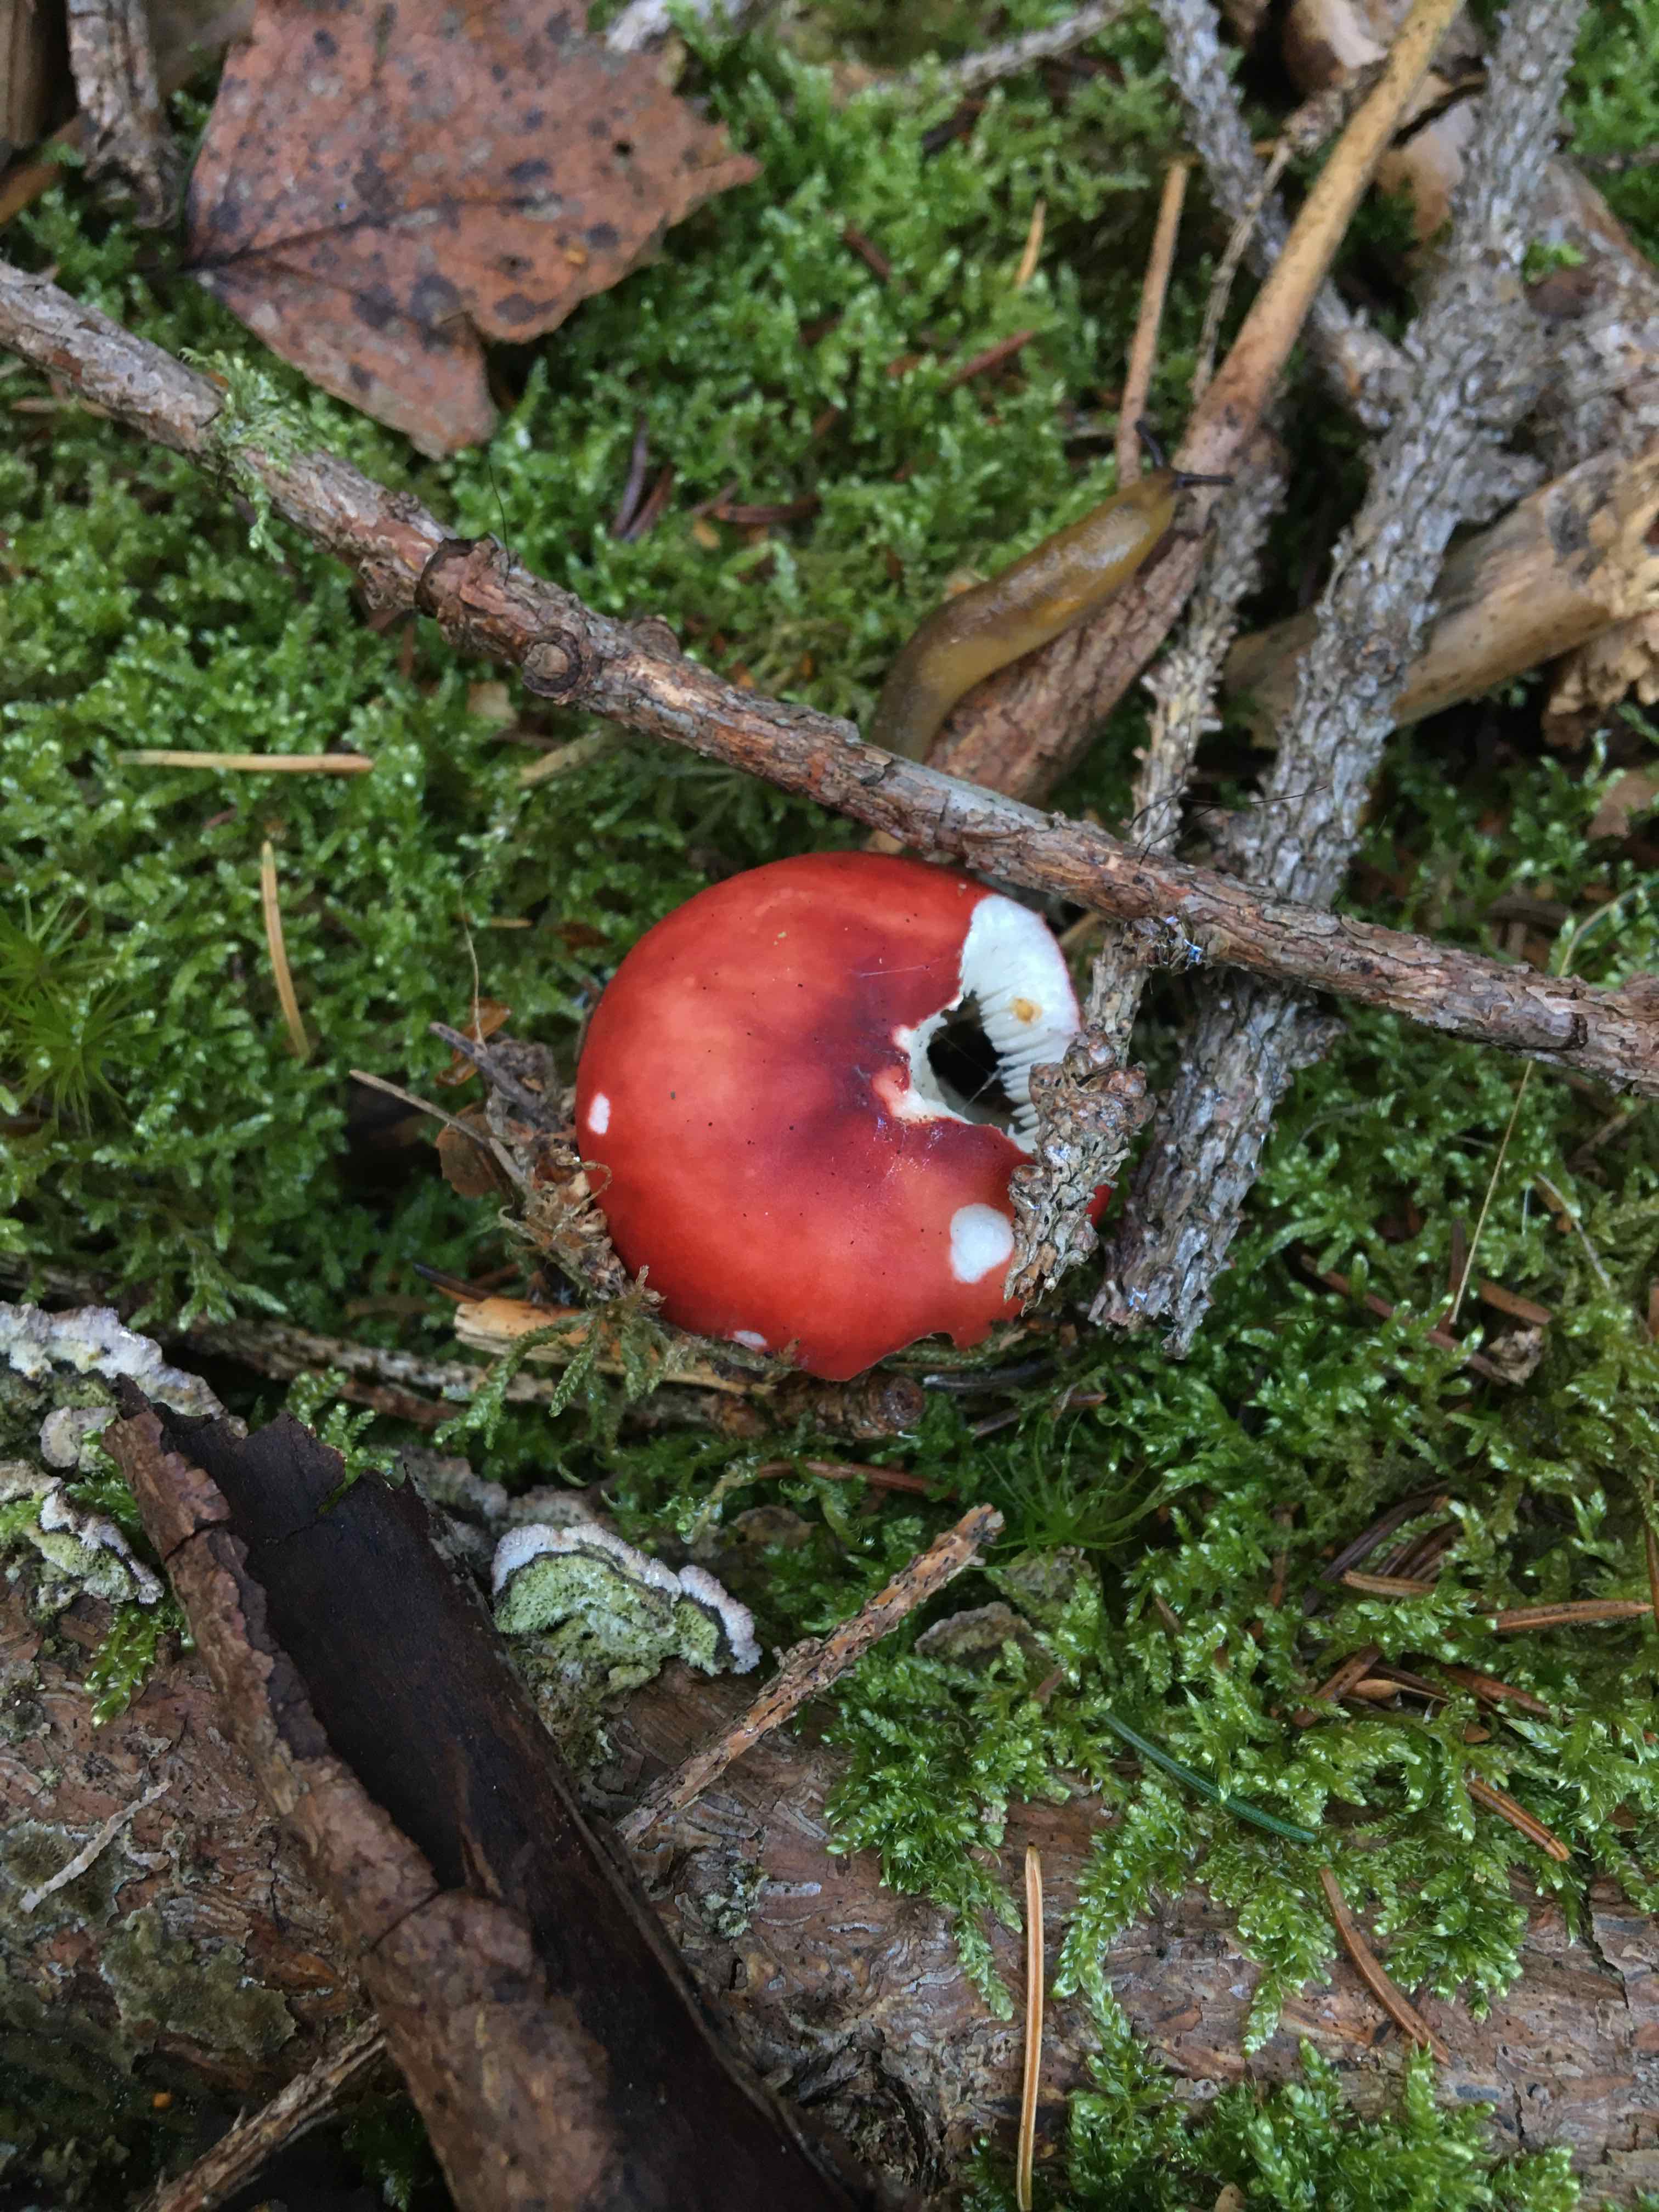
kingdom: Fungi
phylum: Basidiomycota
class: Agaricomycetes
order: Russulales
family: Russulaceae
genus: Russula
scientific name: Russula emetica
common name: stor gift-skørhat
